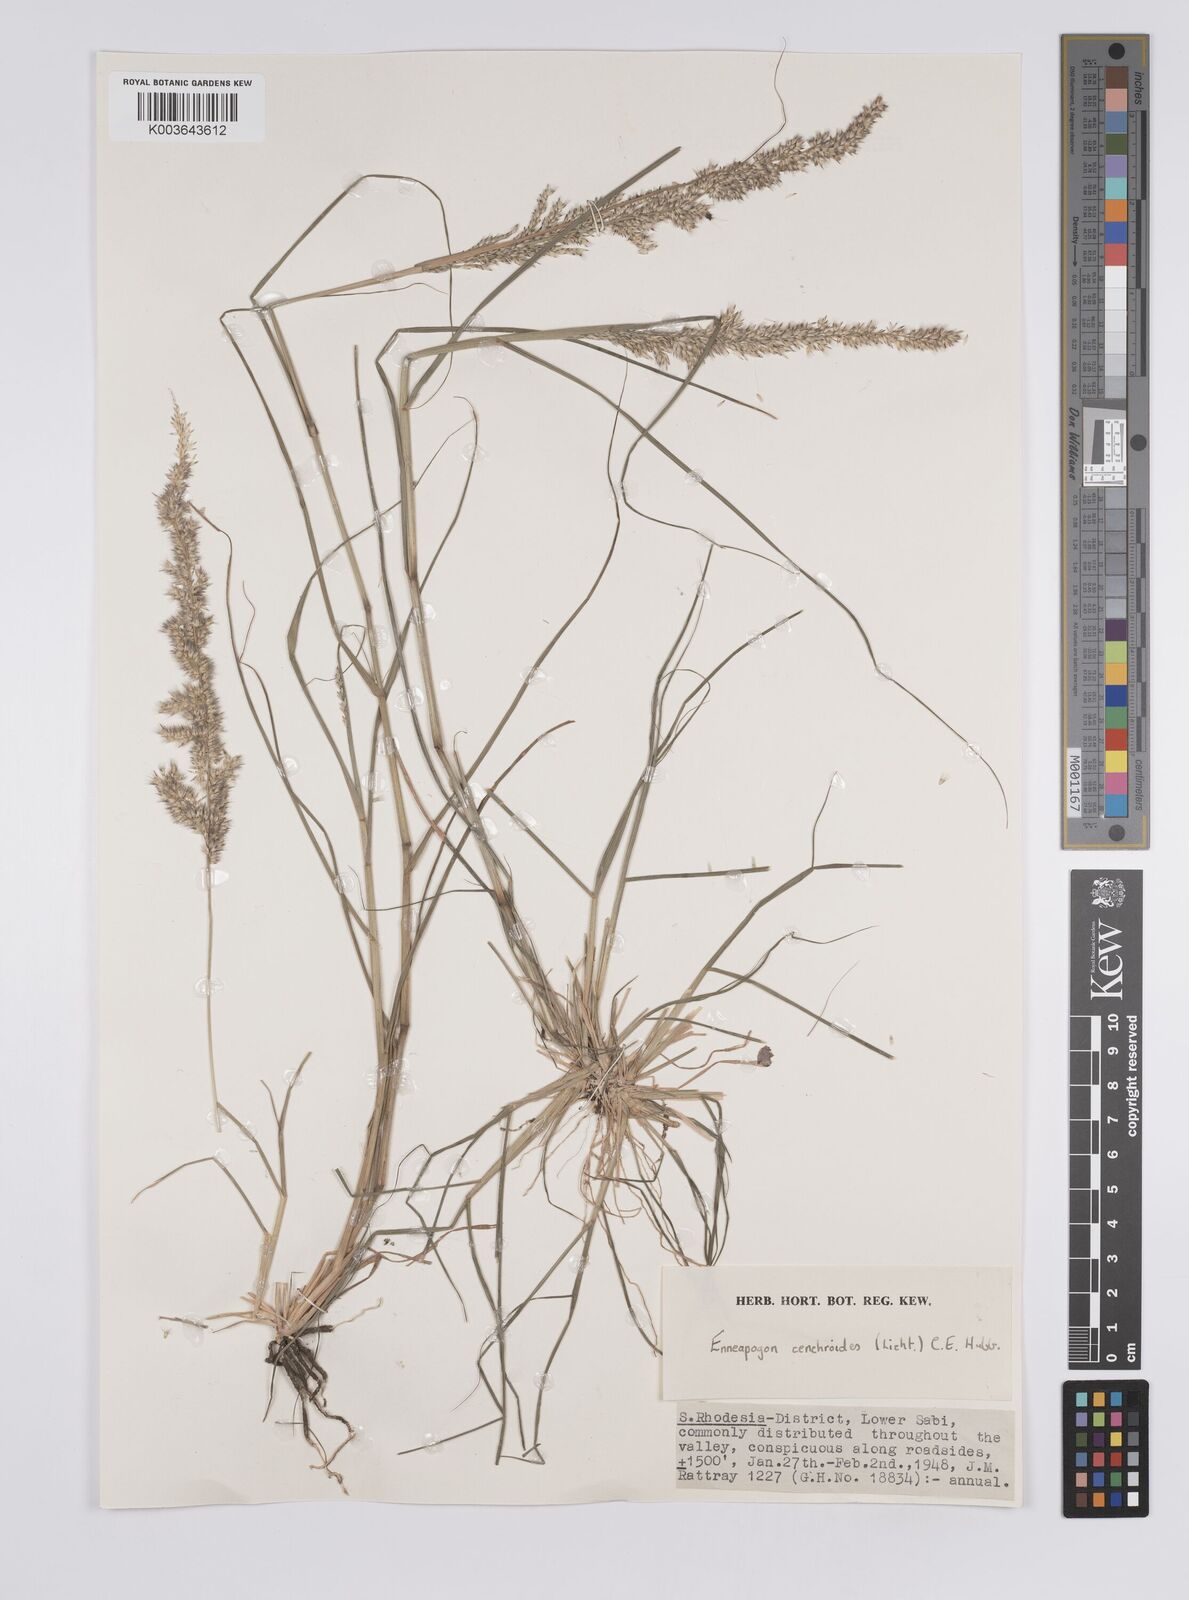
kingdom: Plantae
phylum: Tracheophyta
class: Liliopsida
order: Poales
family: Poaceae
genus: Enneapogon
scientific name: Enneapogon cenchroides
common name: Soft feather pappusgrass
